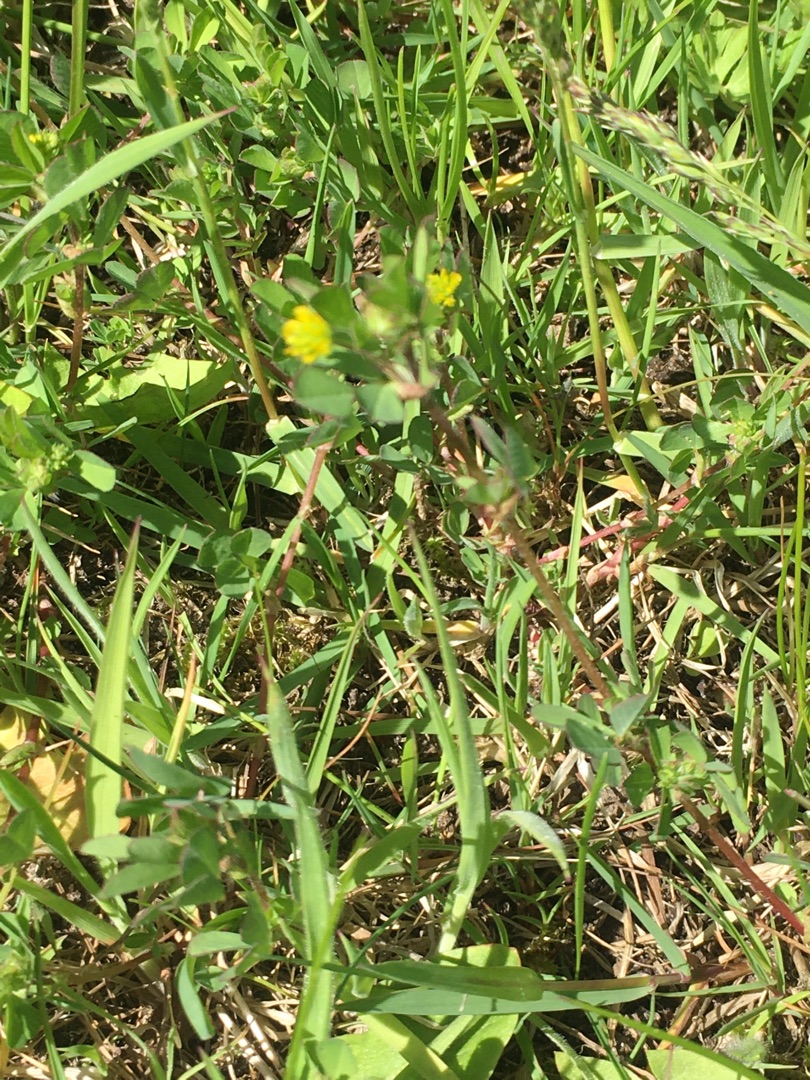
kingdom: Plantae
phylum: Tracheophyta
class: Magnoliopsida
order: Fabales
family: Fabaceae
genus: Medicago
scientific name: Medicago lupulina
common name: Humle-sneglebælg
